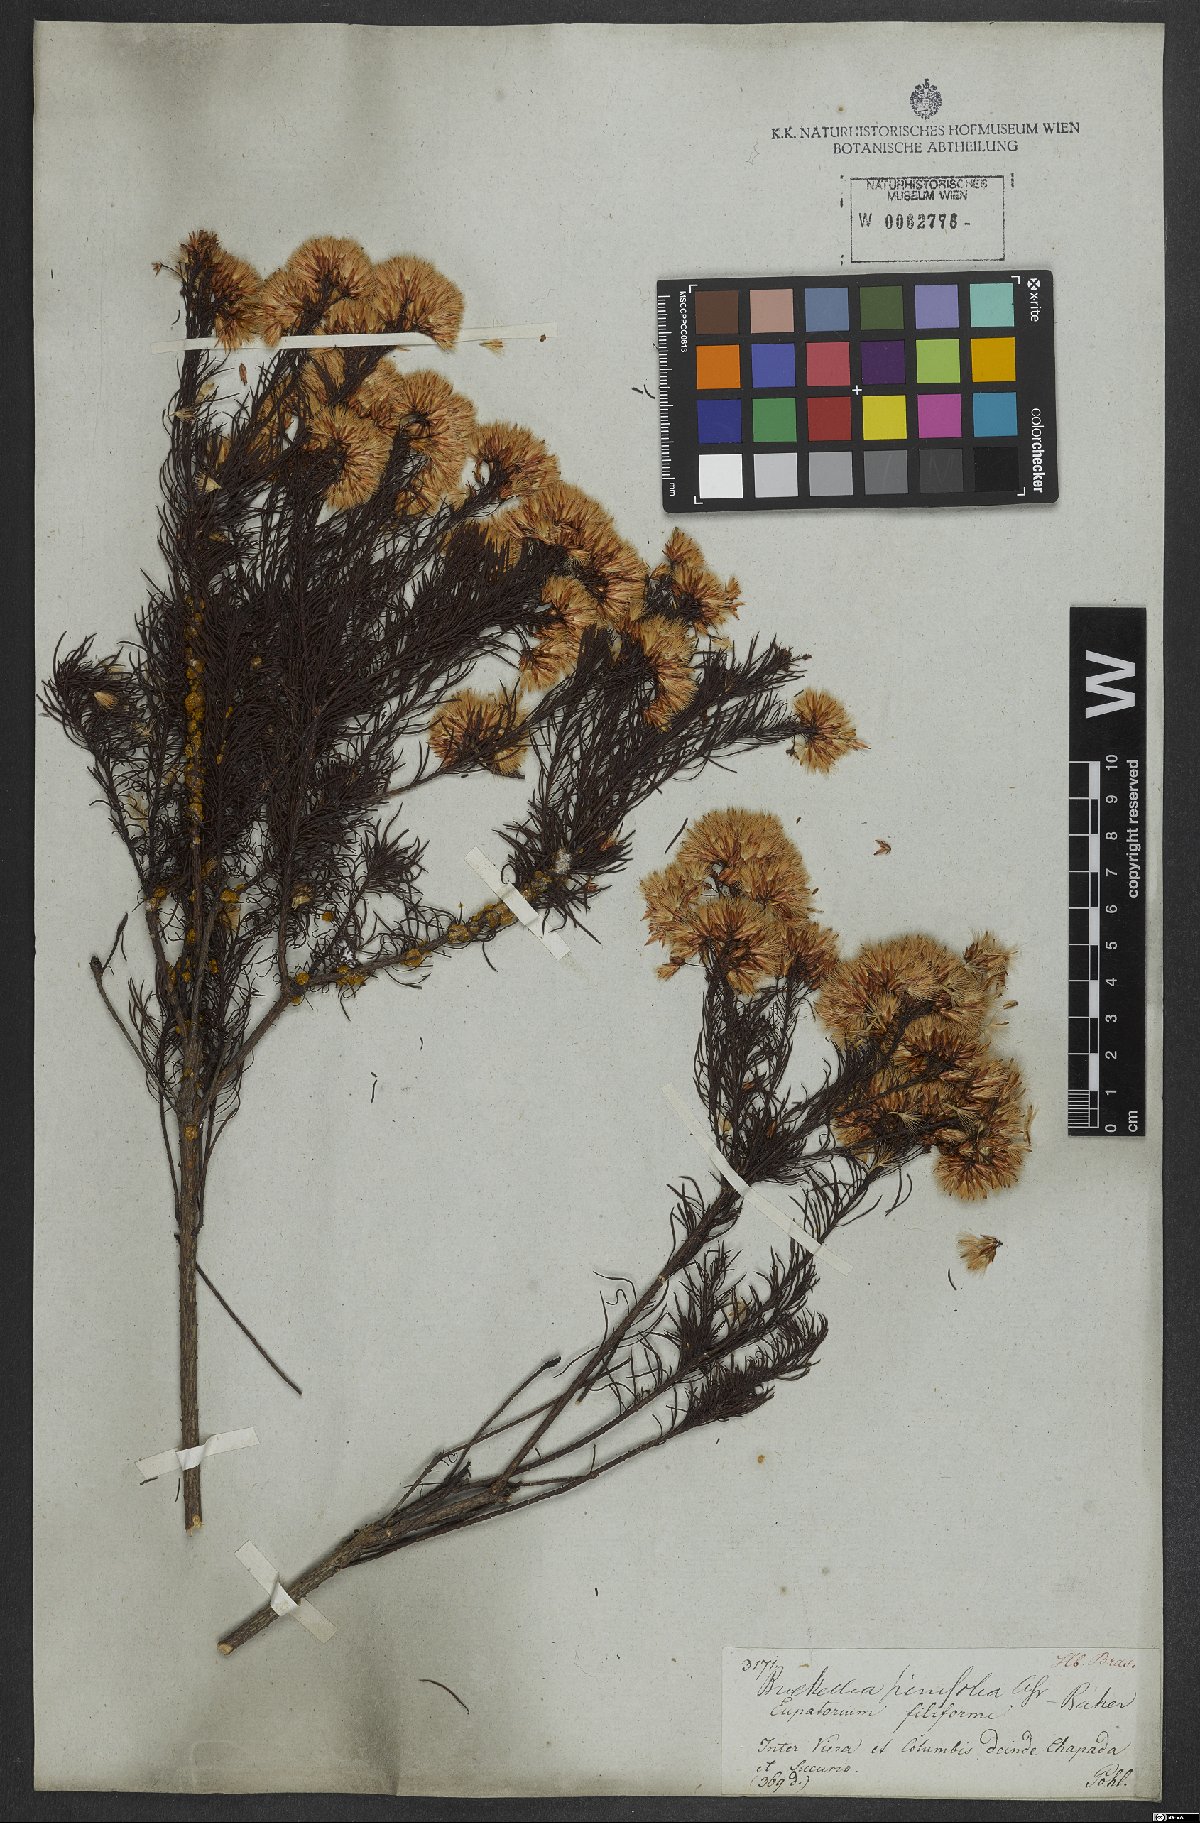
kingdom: Plantae
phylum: Tracheophyta
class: Magnoliopsida
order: Asterales
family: Asteraceae
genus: Pseudobrickellia
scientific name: Pseudobrickellia brasiliensis
